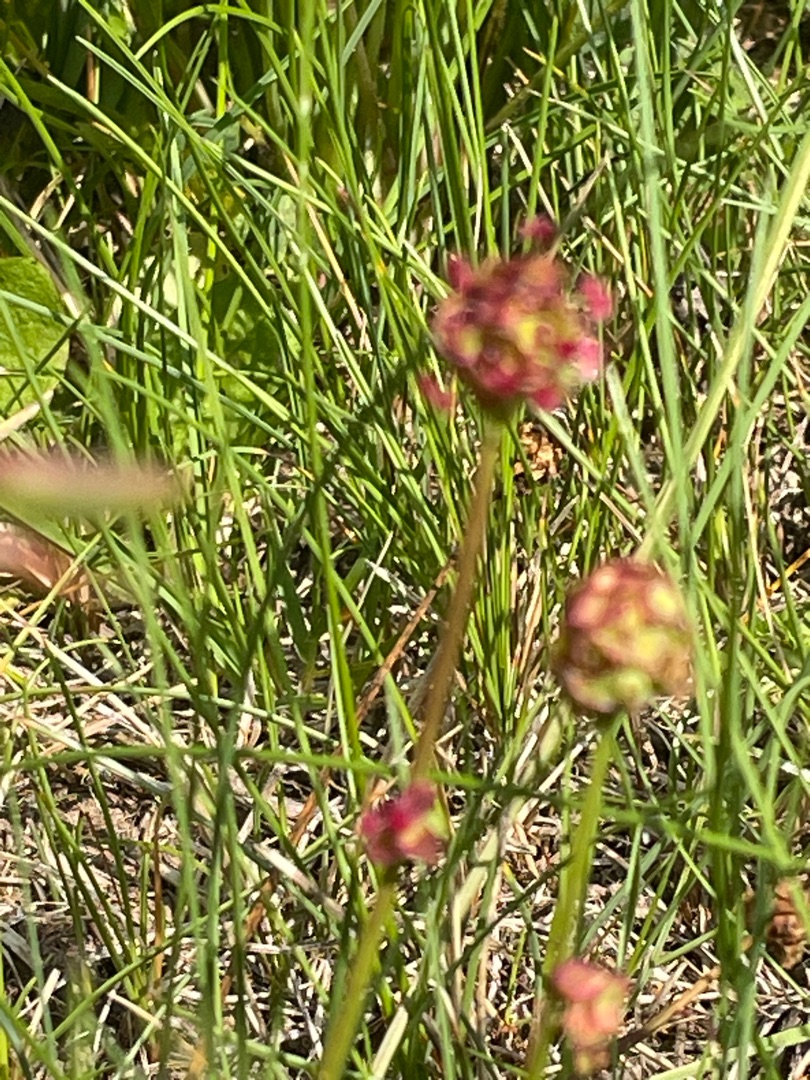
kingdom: Plantae
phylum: Tracheophyta
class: Magnoliopsida
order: Rosales
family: Rosaceae
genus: Poterium
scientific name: Poterium sanguisorba
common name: Bibernelle
